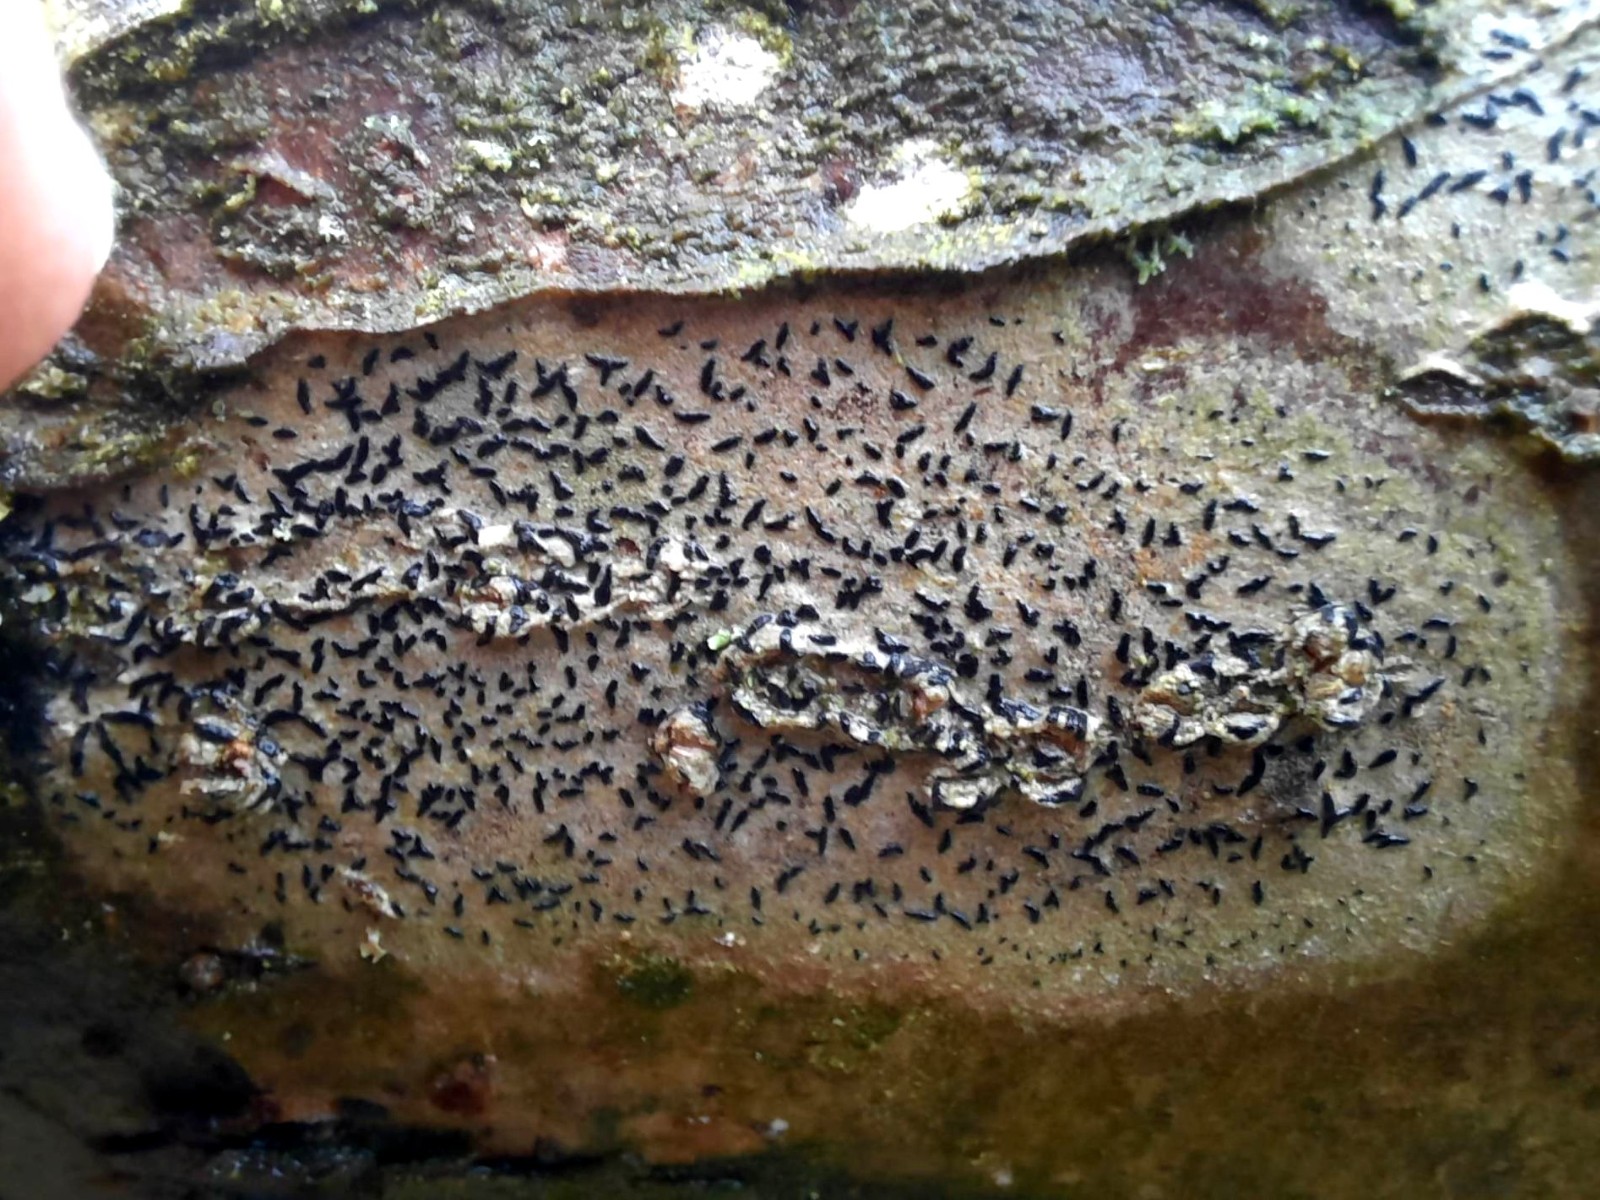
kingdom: Fungi
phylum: Ascomycota
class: Arthoniomycetes
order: Arthoniales
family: Opegraphaceae
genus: Opegrapha
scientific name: Opegrapha
